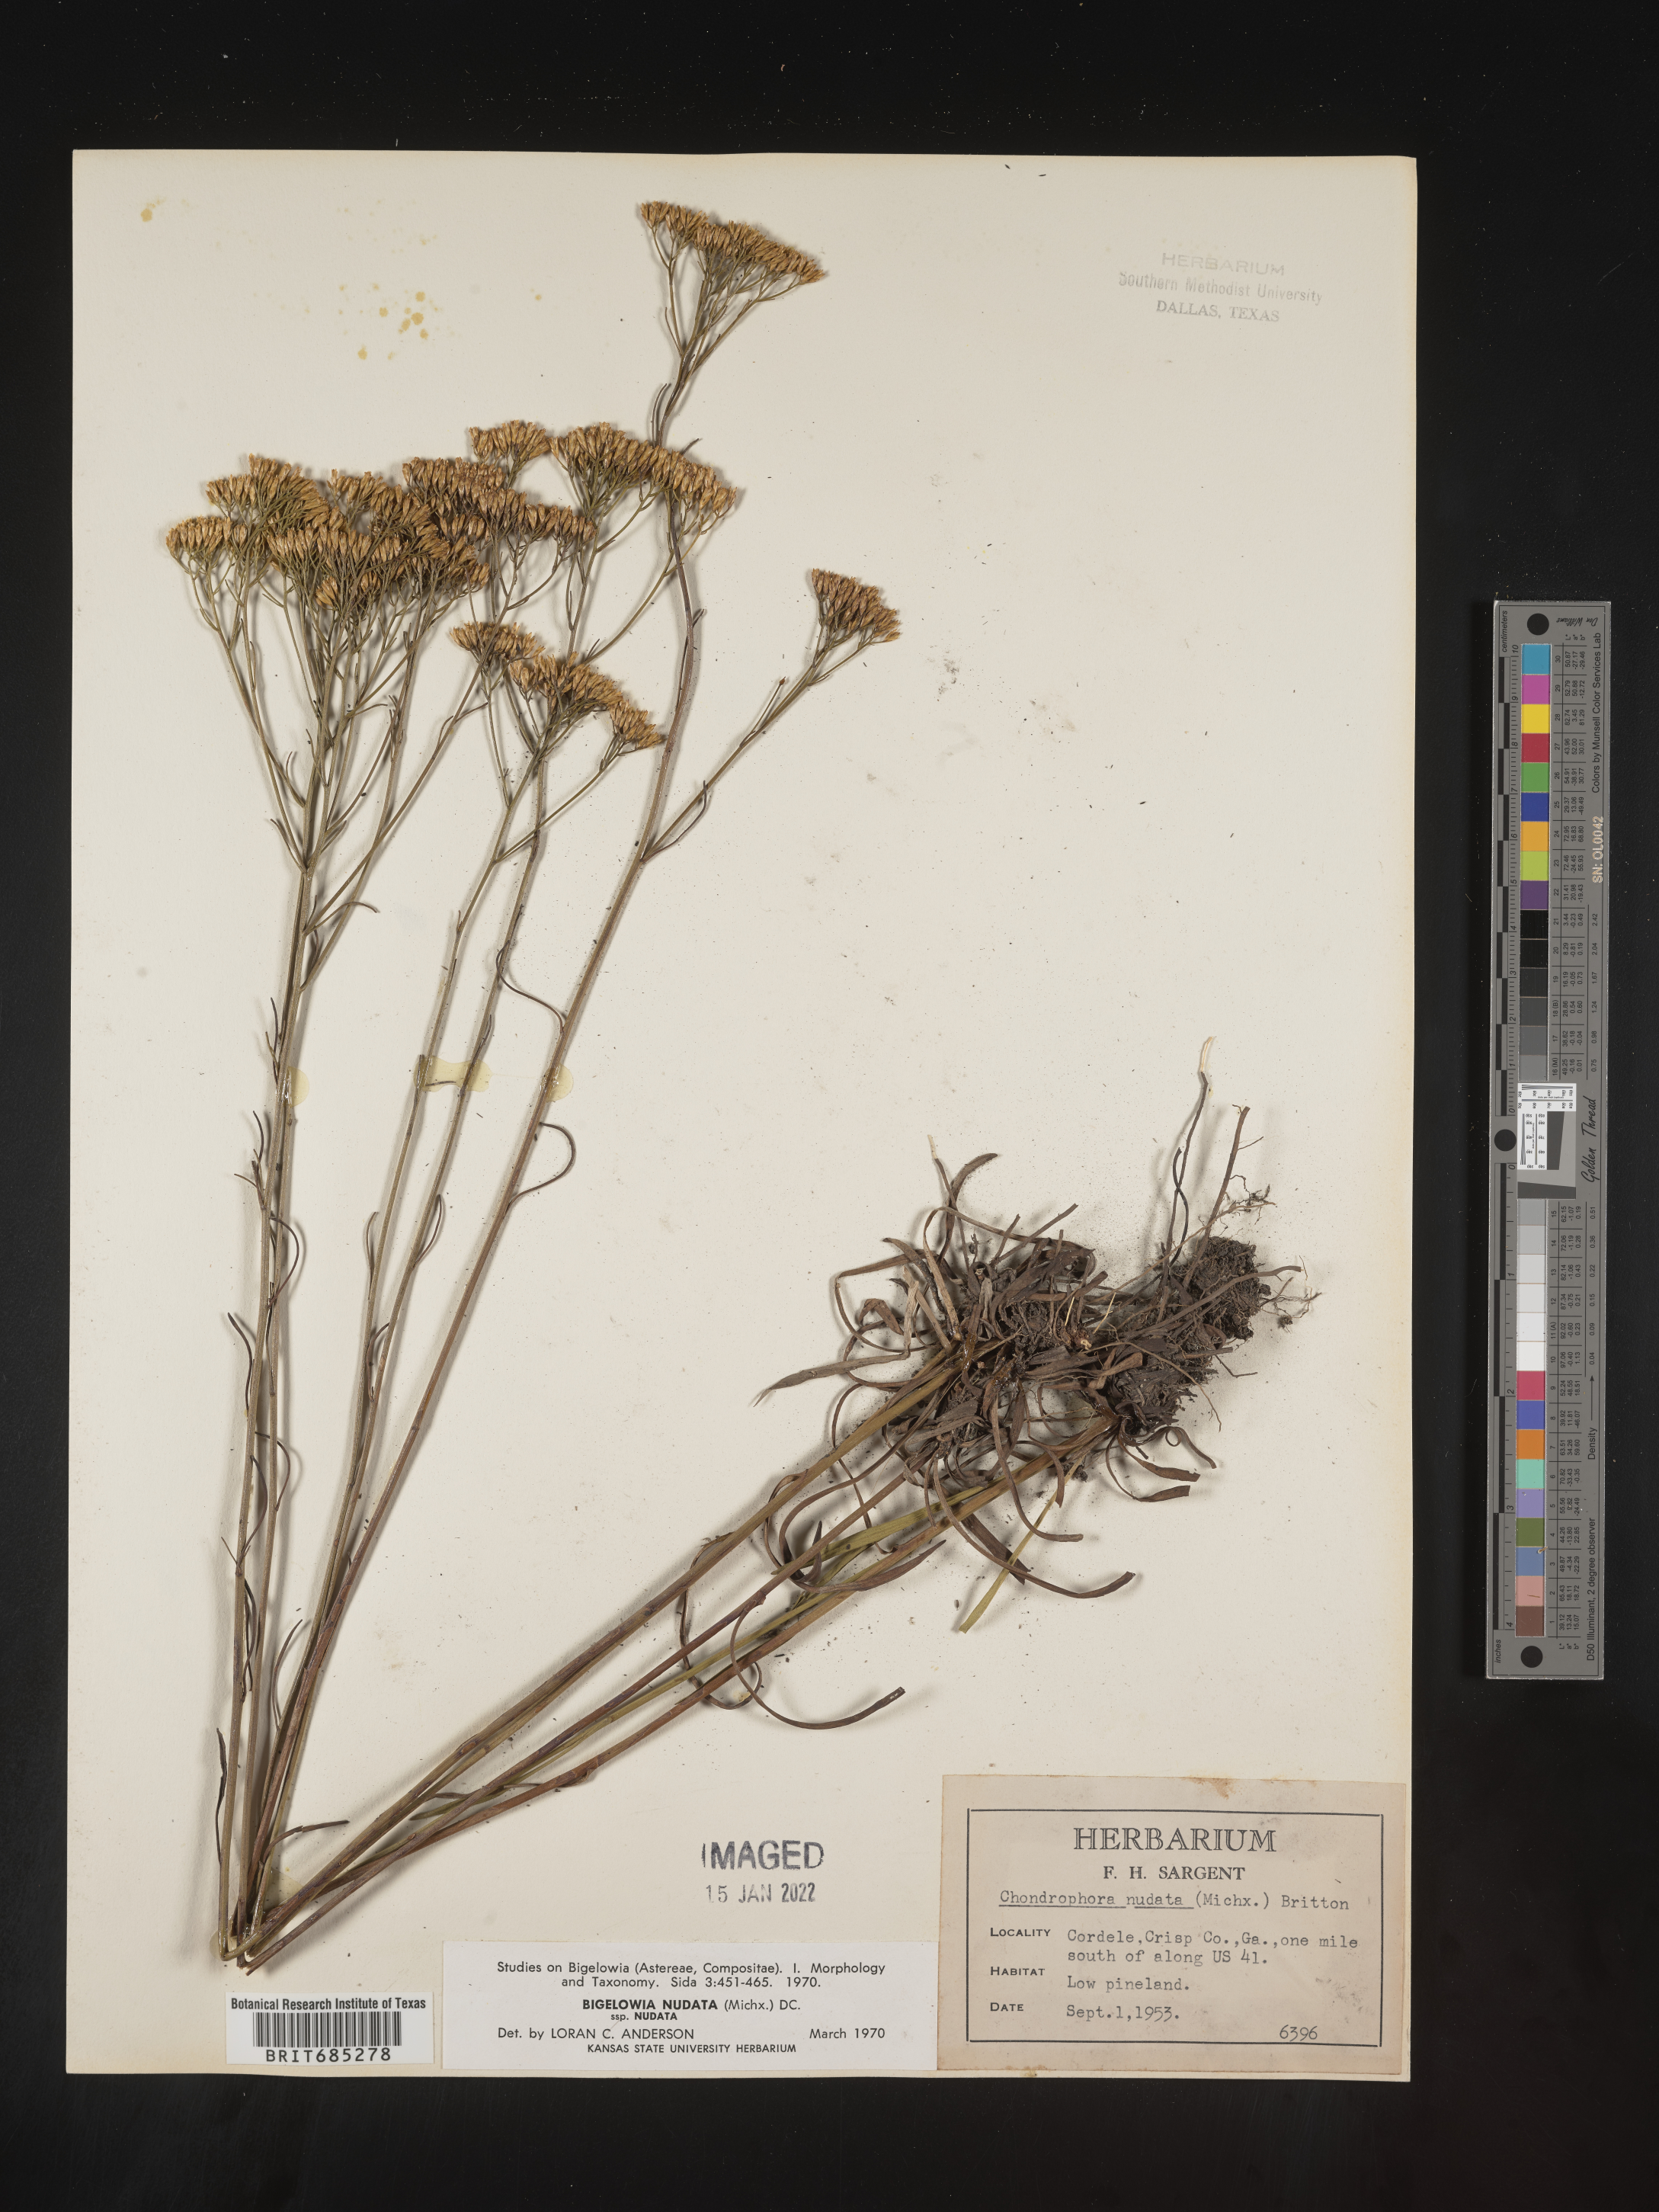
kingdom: Plantae
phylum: Tracheophyta
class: Magnoliopsida
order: Asterales
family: Asteraceae
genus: Bigelowia
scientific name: Bigelowia nudata
